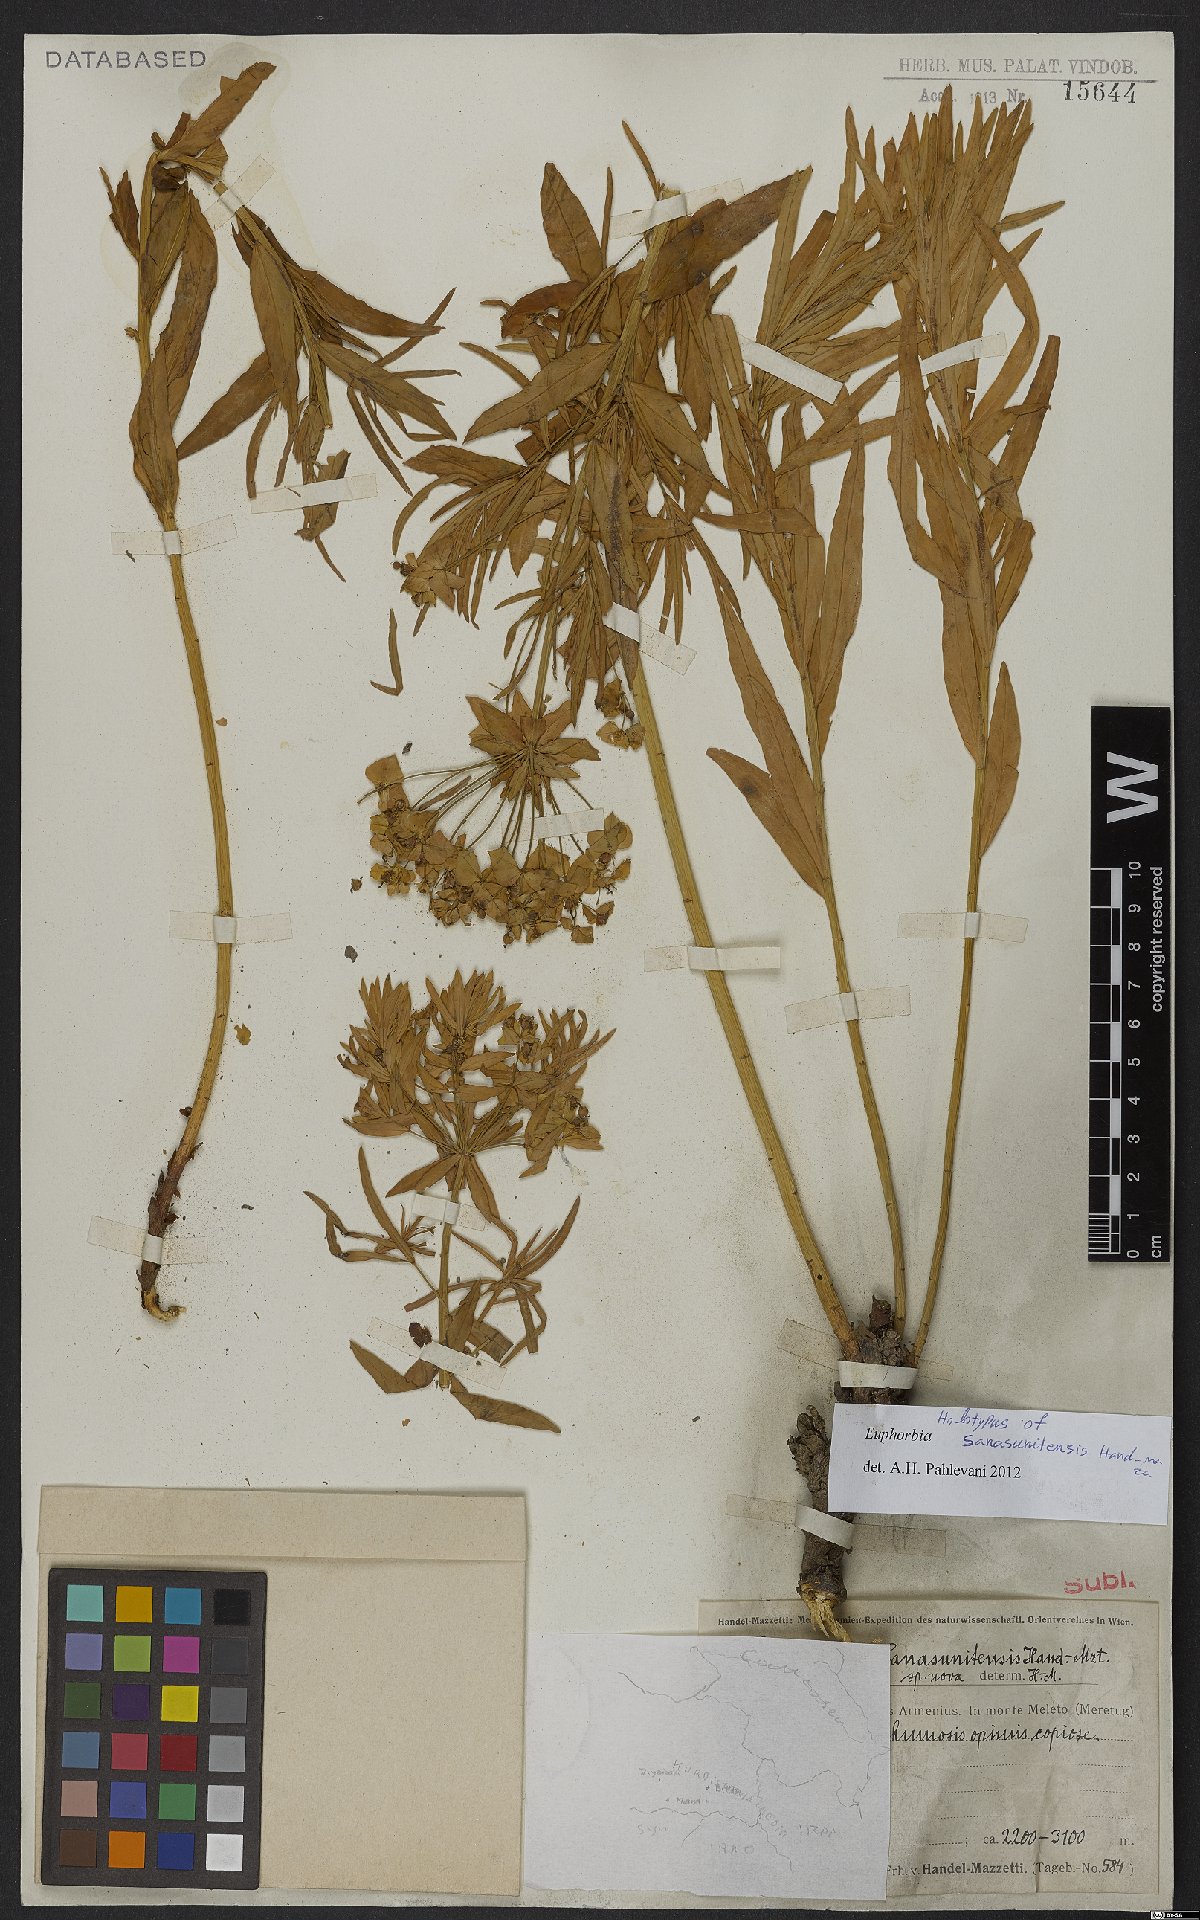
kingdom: Plantae
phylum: Tracheophyta
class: Magnoliopsida
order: Malpighiales
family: Euphorbiaceae
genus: Euphorbia
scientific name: Euphorbia iberica
